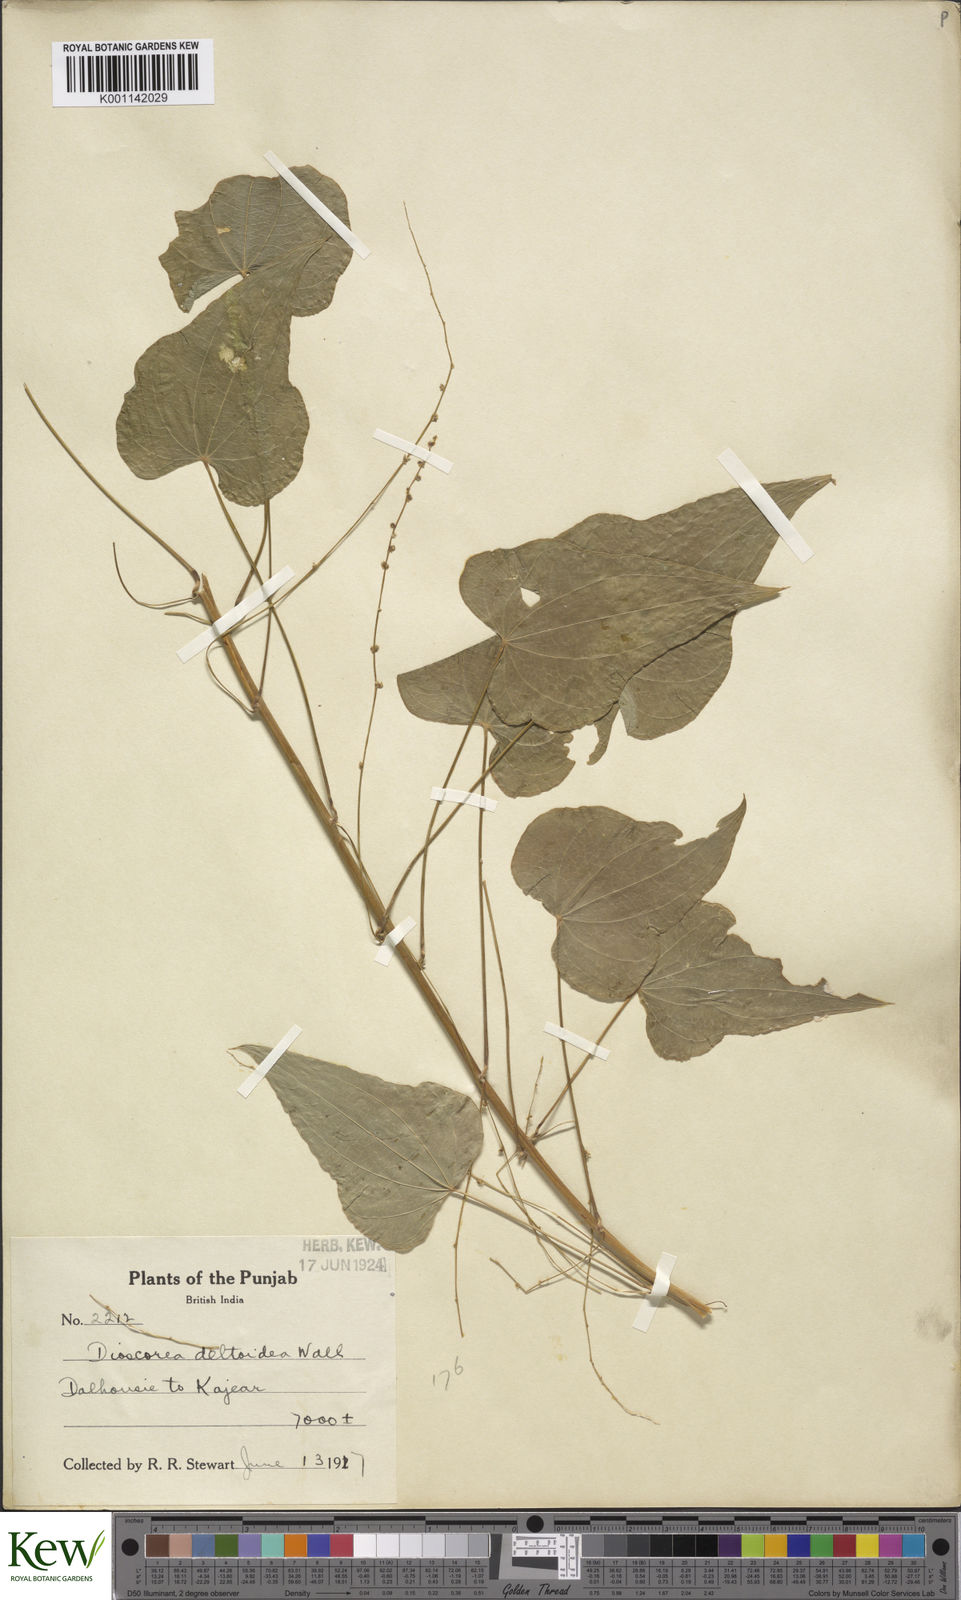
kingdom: Plantae
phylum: Tracheophyta
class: Liliopsida
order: Dioscoreales
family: Dioscoreaceae
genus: Dioscorea
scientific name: Dioscorea deltoidea
